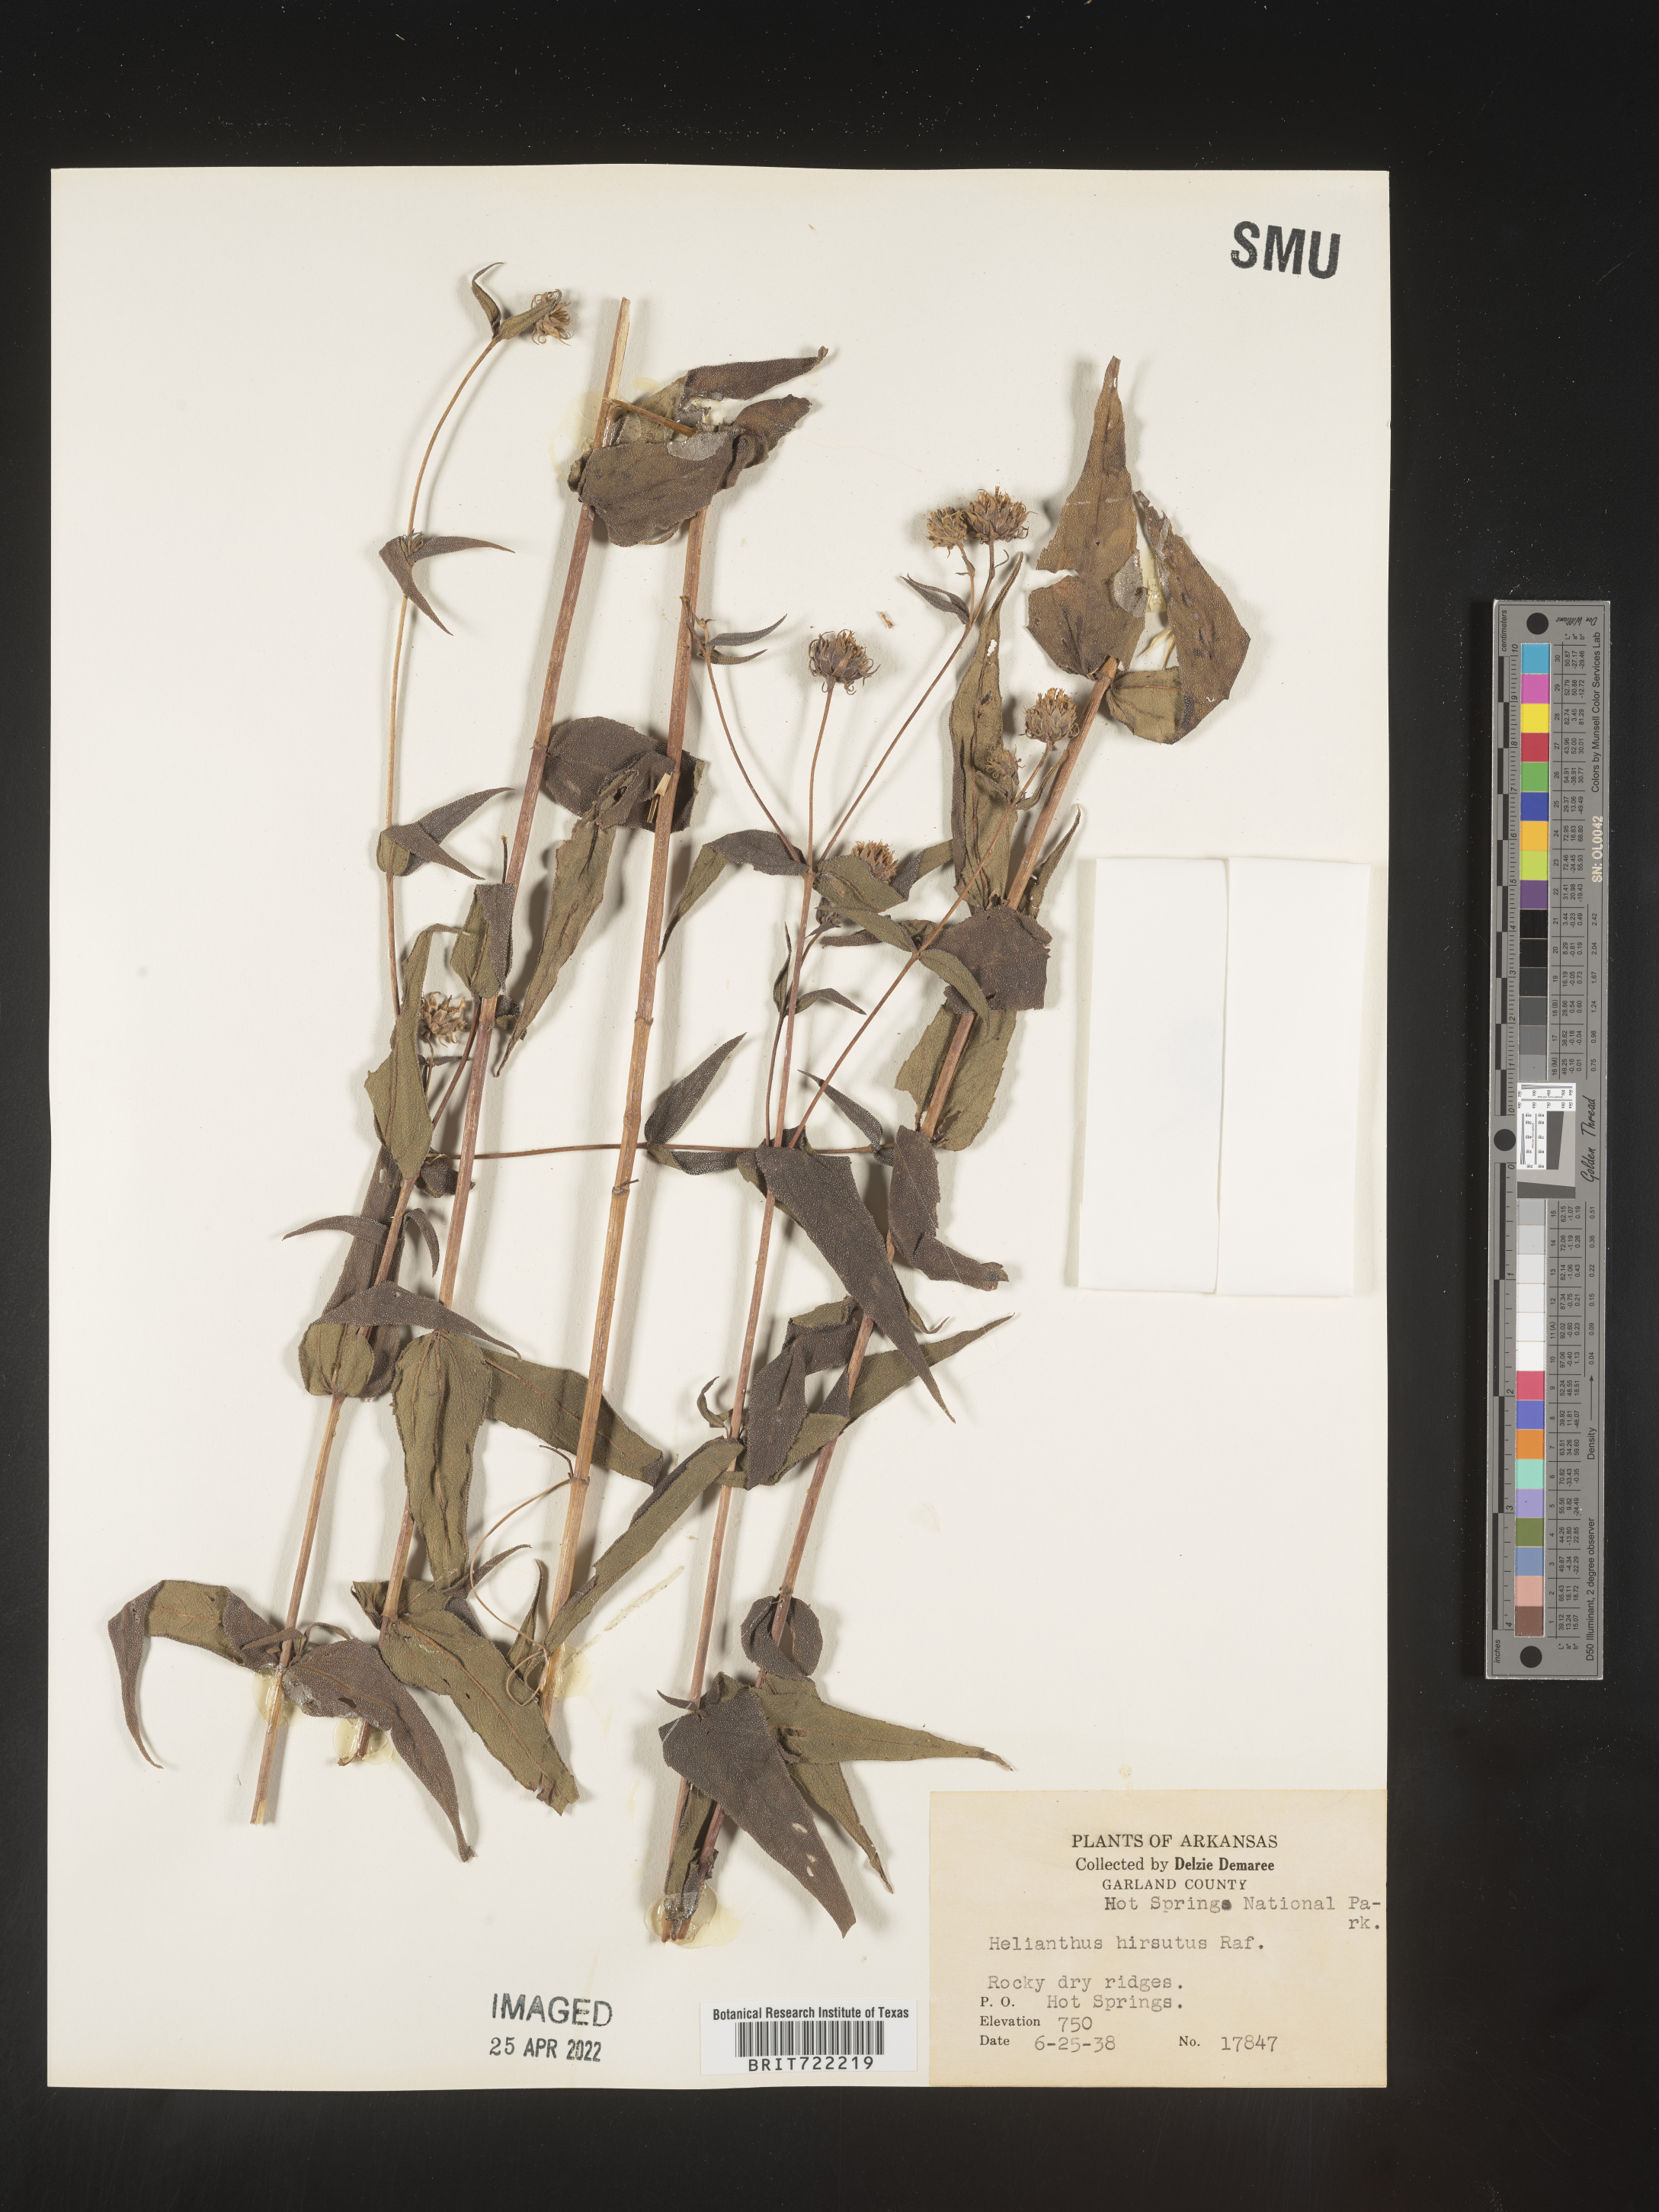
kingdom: Plantae
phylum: Tracheophyta
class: Magnoliopsida
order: Asterales
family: Asteraceae
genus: Helianthus
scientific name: Helianthus hirsutus
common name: Hairy sunflower
